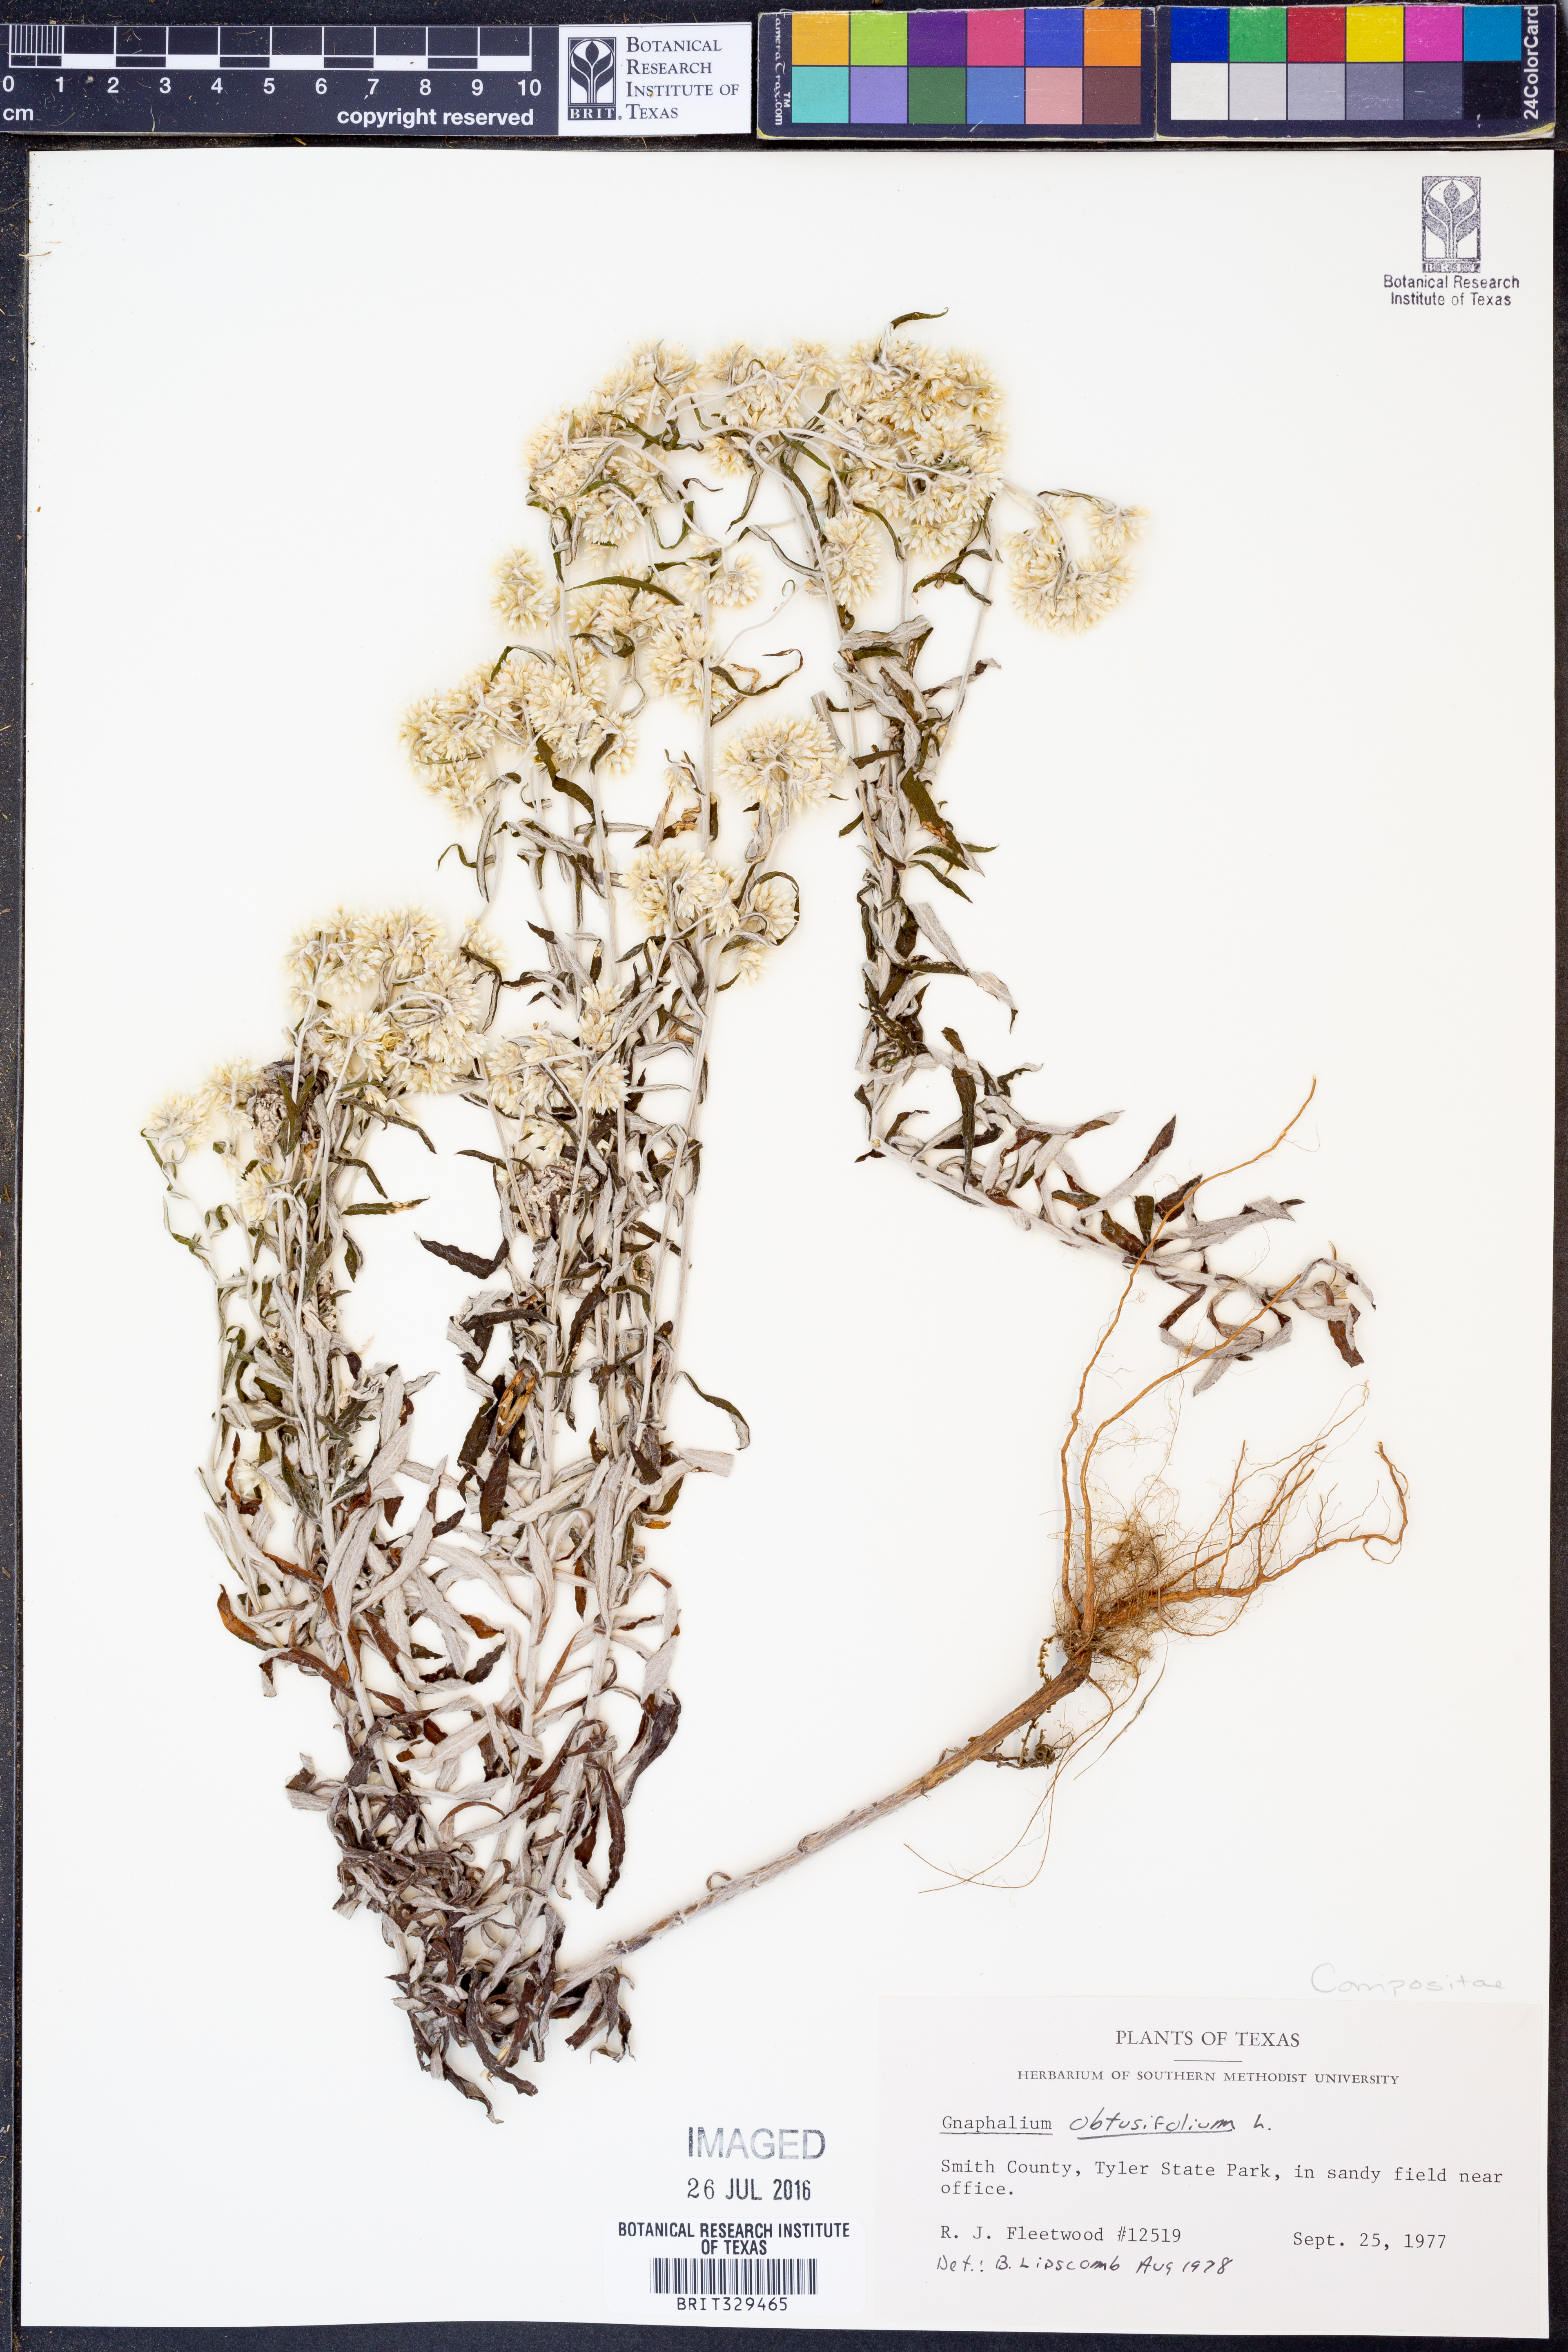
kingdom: Plantae
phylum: Tracheophyta
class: Magnoliopsida
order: Asterales
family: Asteraceae
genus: Pseudognaphalium
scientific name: Pseudognaphalium obtusifolium
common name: Eastern rabbit-tobacco
